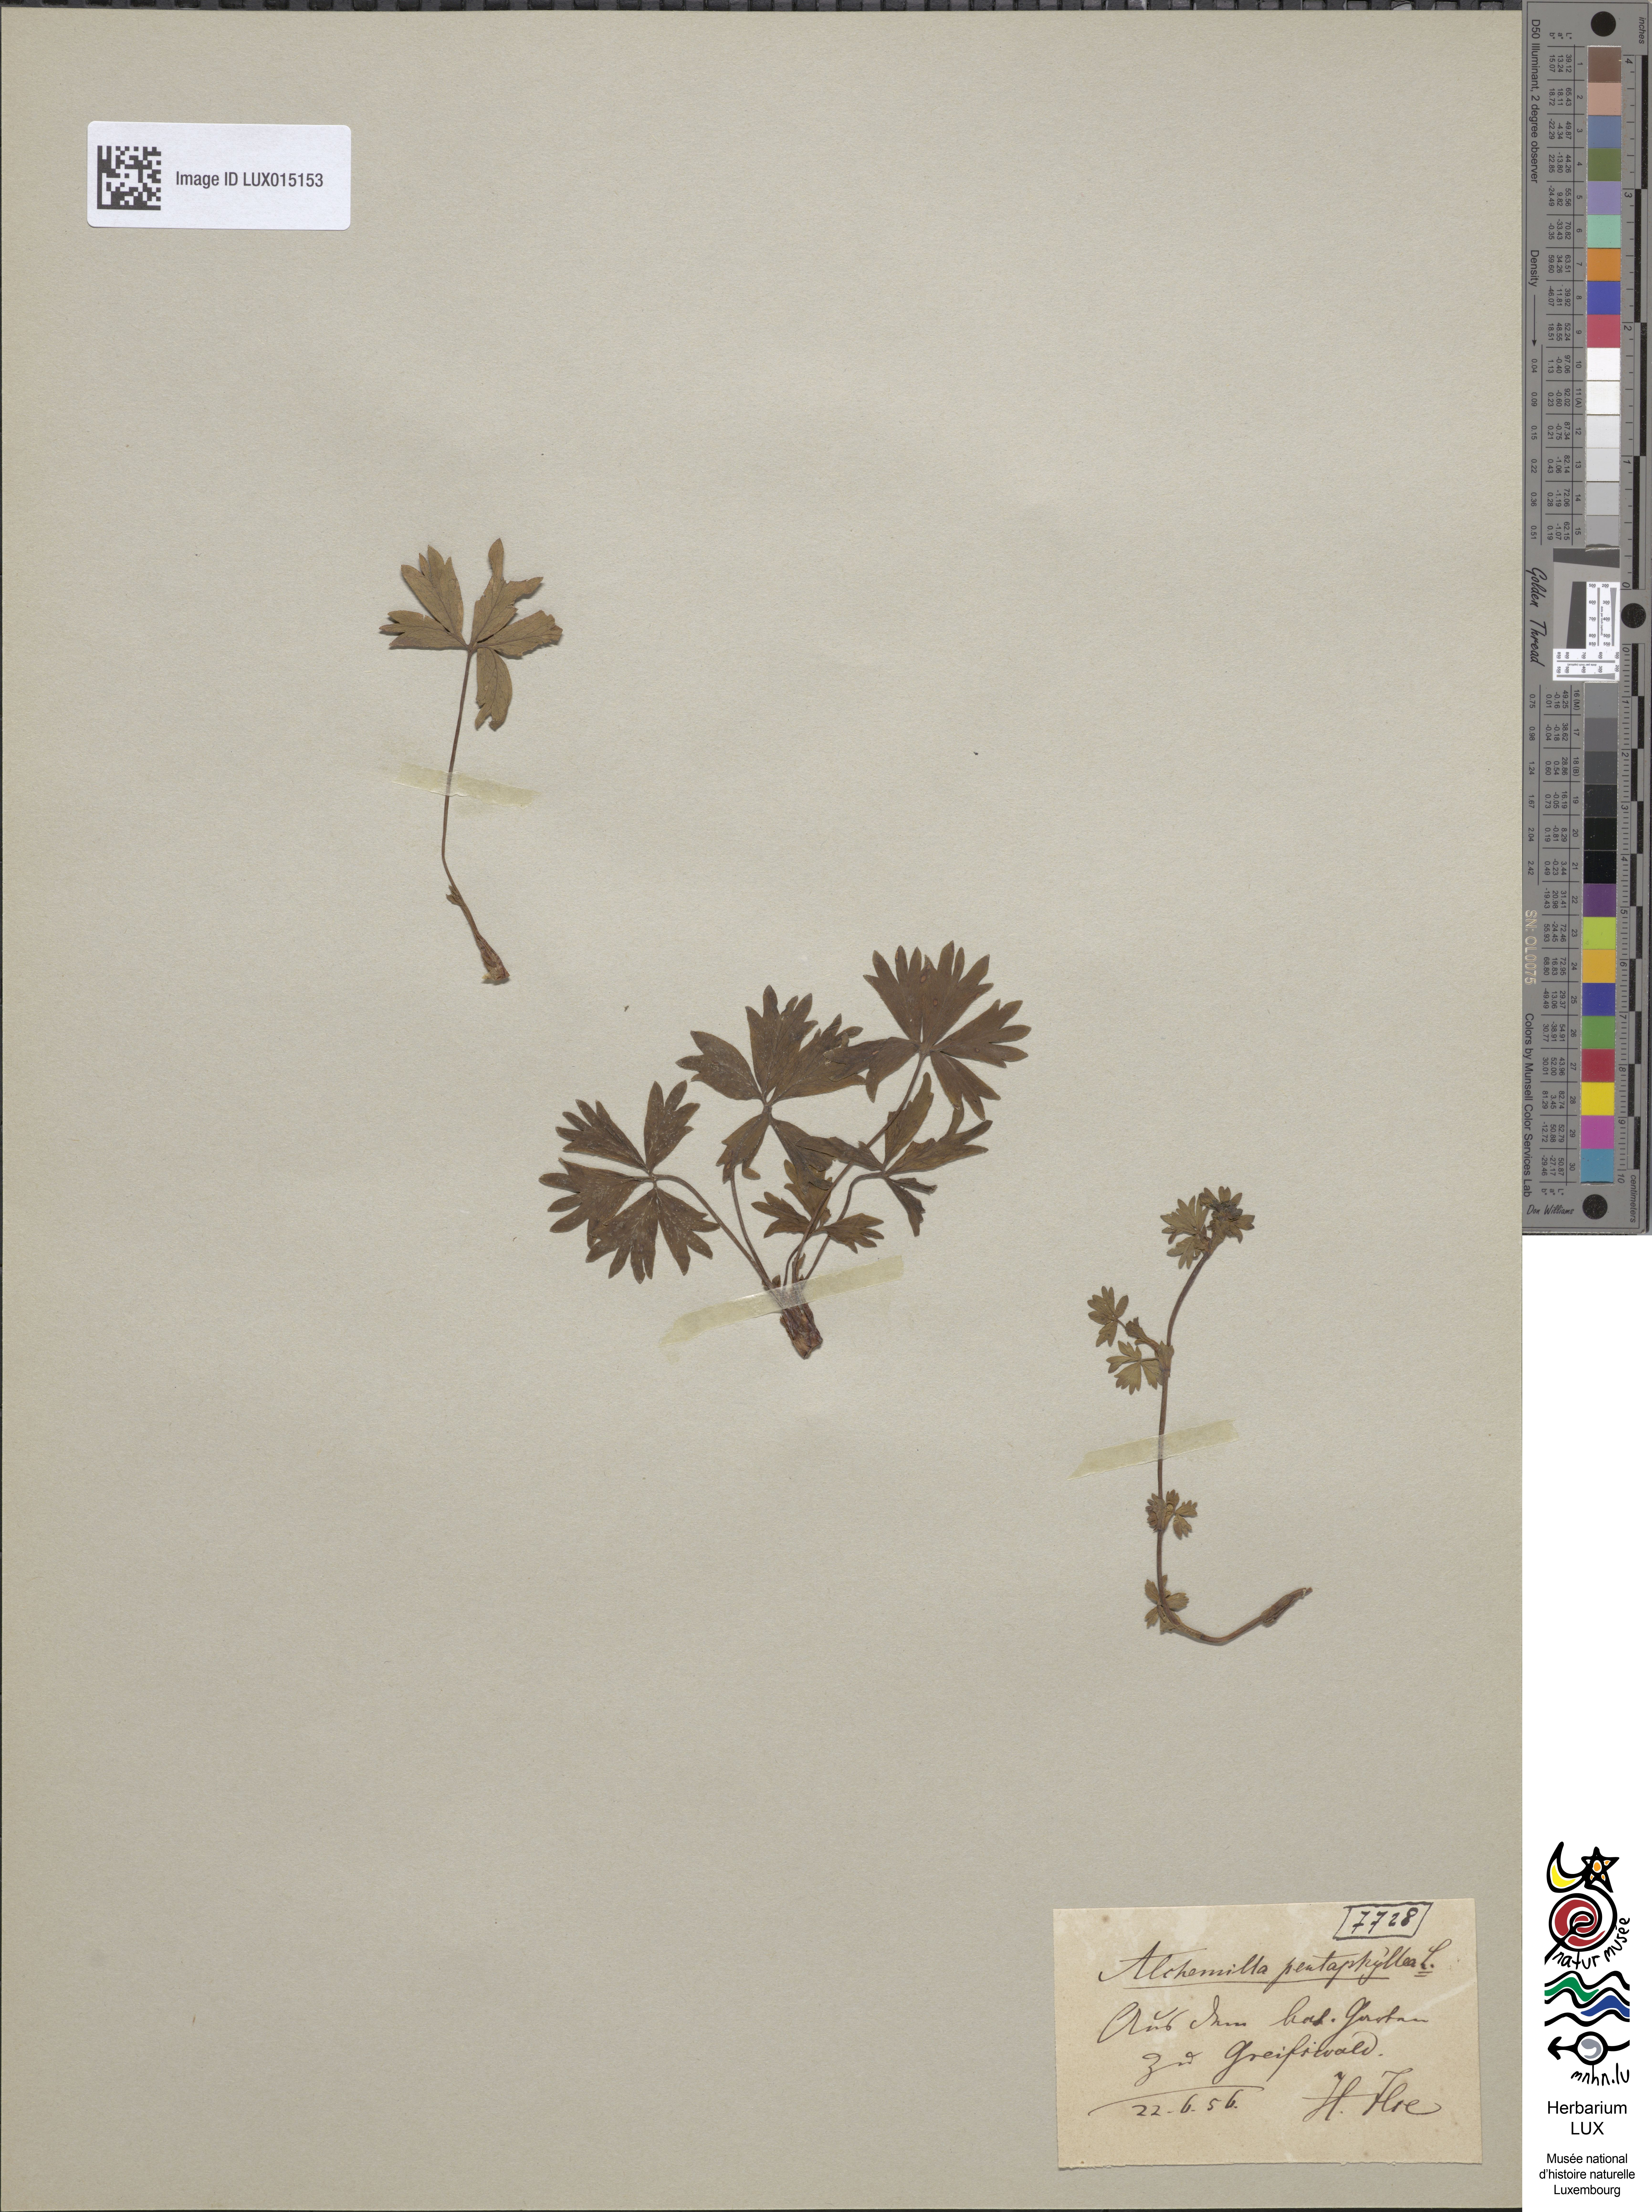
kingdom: Plantae
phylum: Tracheophyta
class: Magnoliopsida
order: Rosales
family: Rosaceae
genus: Alchemilla
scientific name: Alchemilla pentaphyllea
